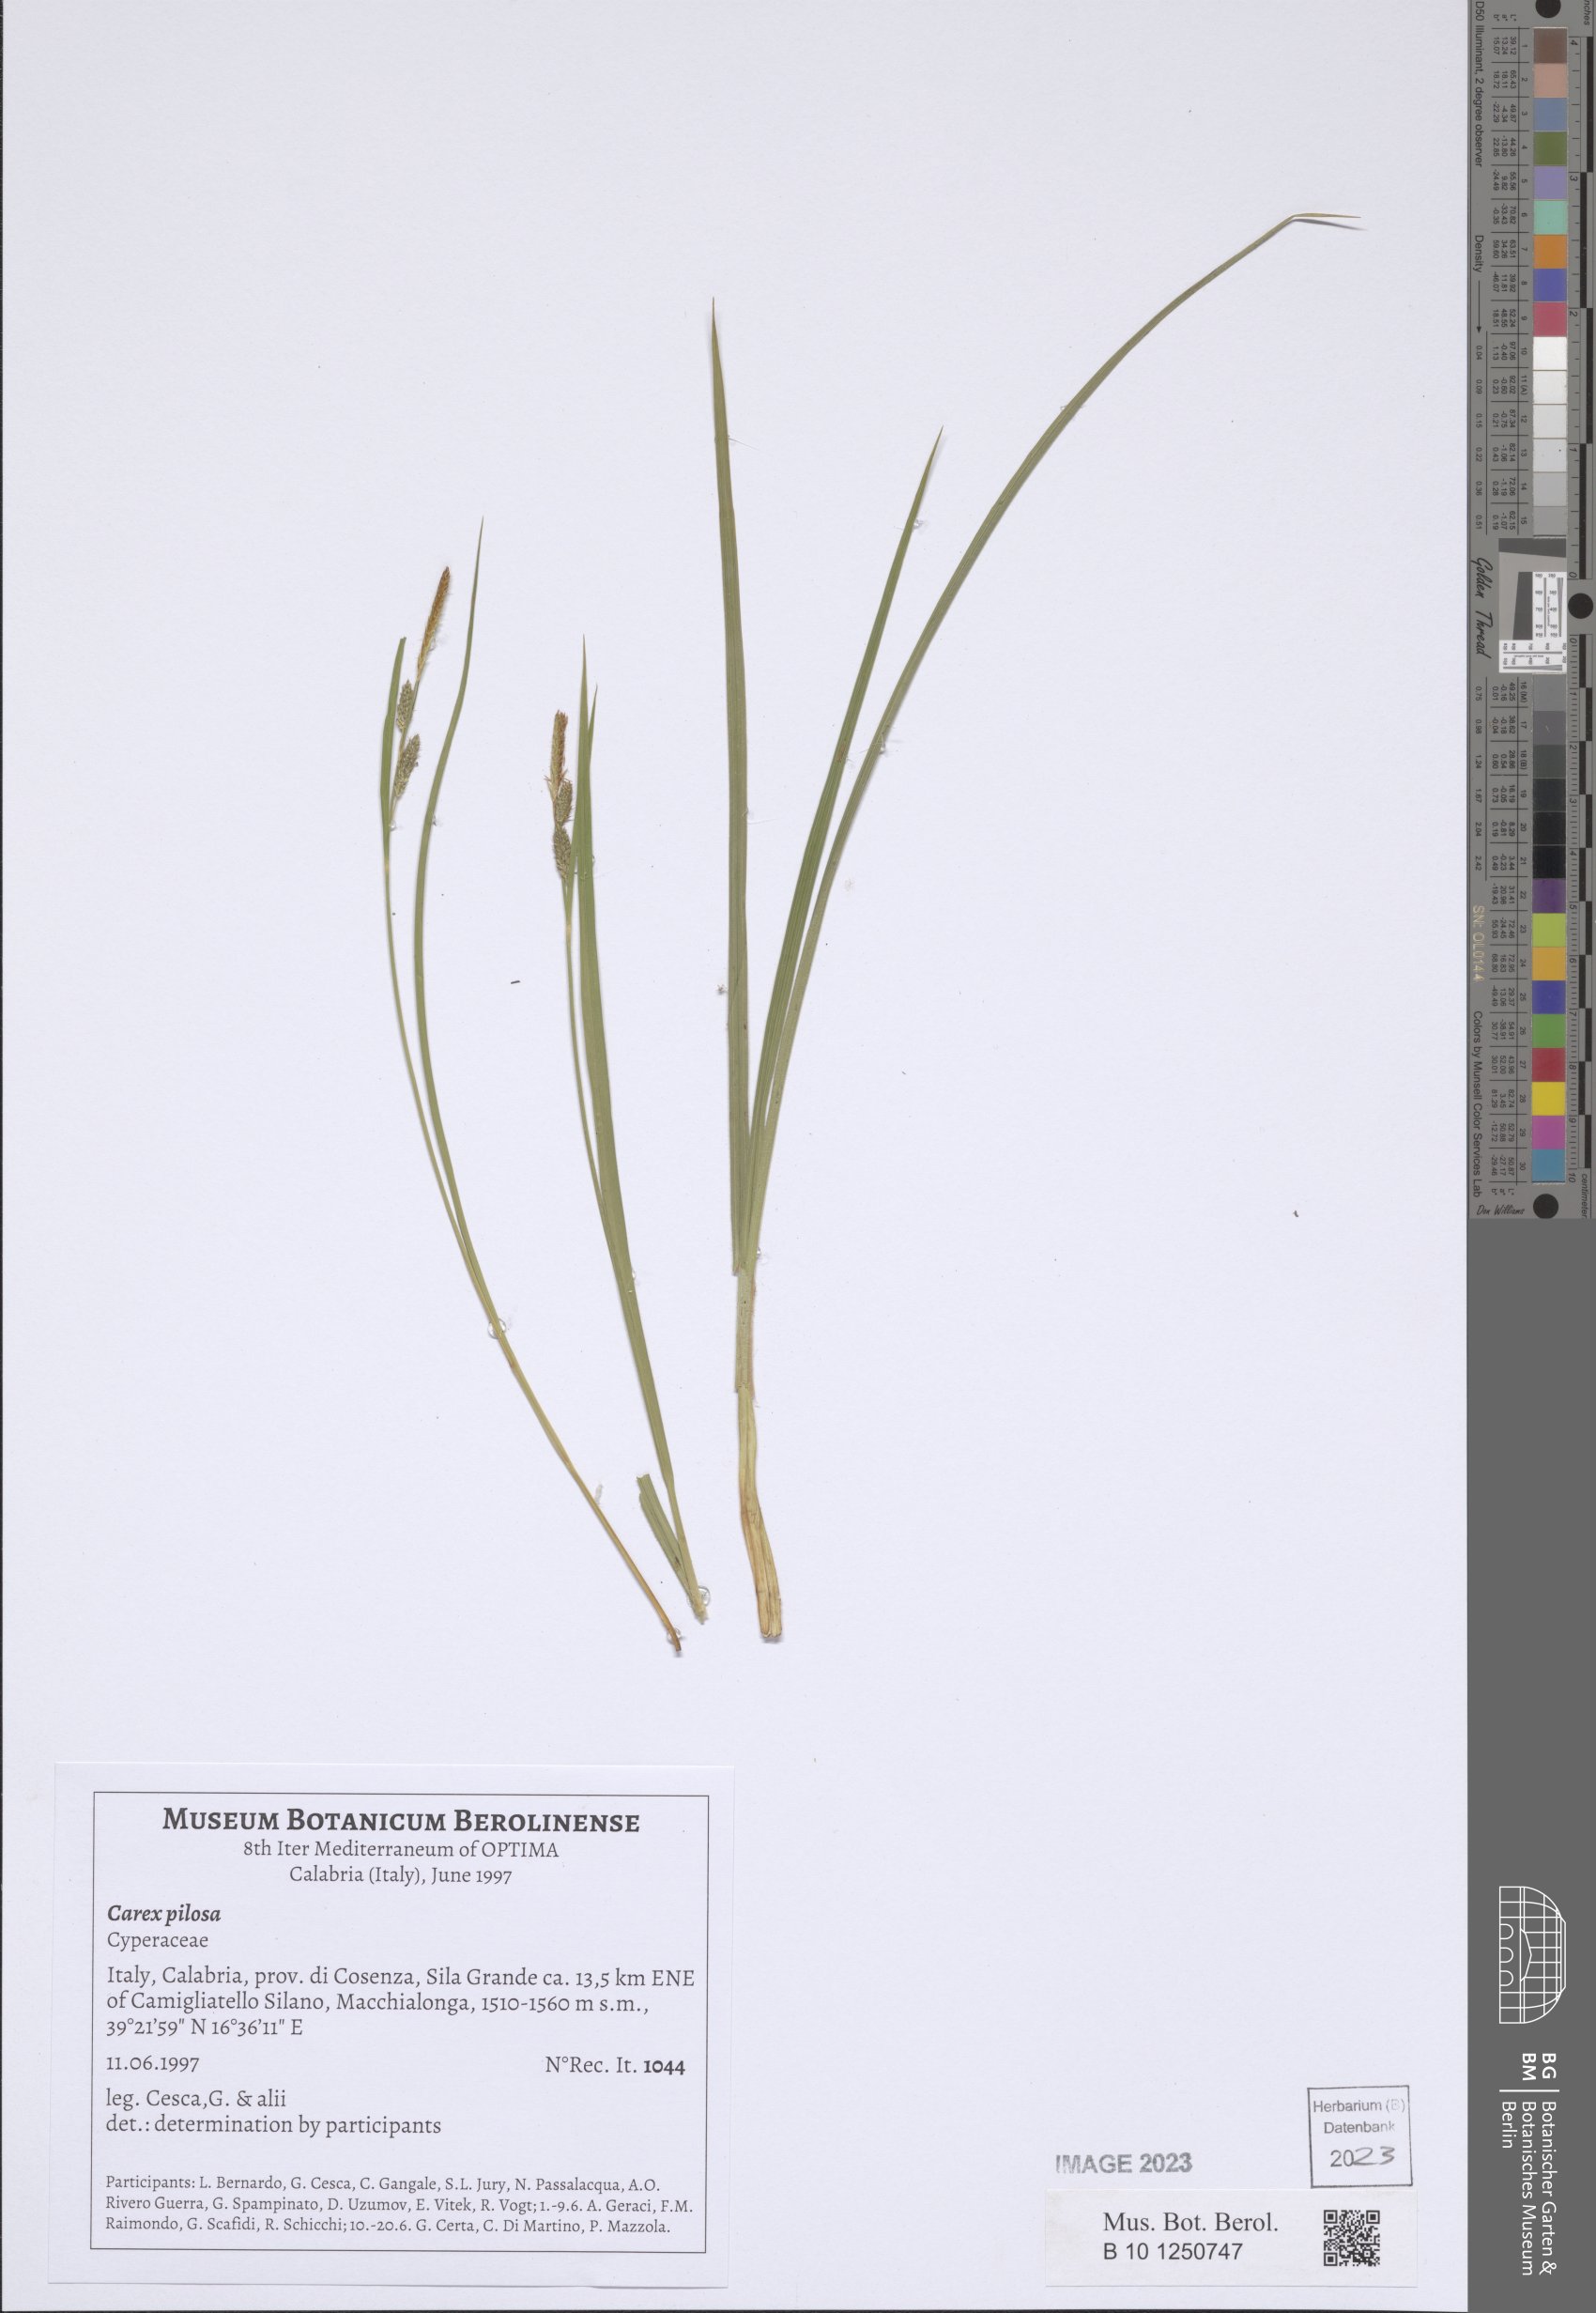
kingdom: Plantae
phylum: Tracheophyta
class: Liliopsida
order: Poales
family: Cyperaceae
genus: Carex
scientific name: Carex pilosa
